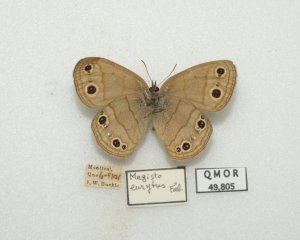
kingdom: Animalia
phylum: Arthropoda
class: Insecta
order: Lepidoptera
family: Nymphalidae
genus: Euptychia
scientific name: Euptychia cymela
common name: Little Wood Satyr
